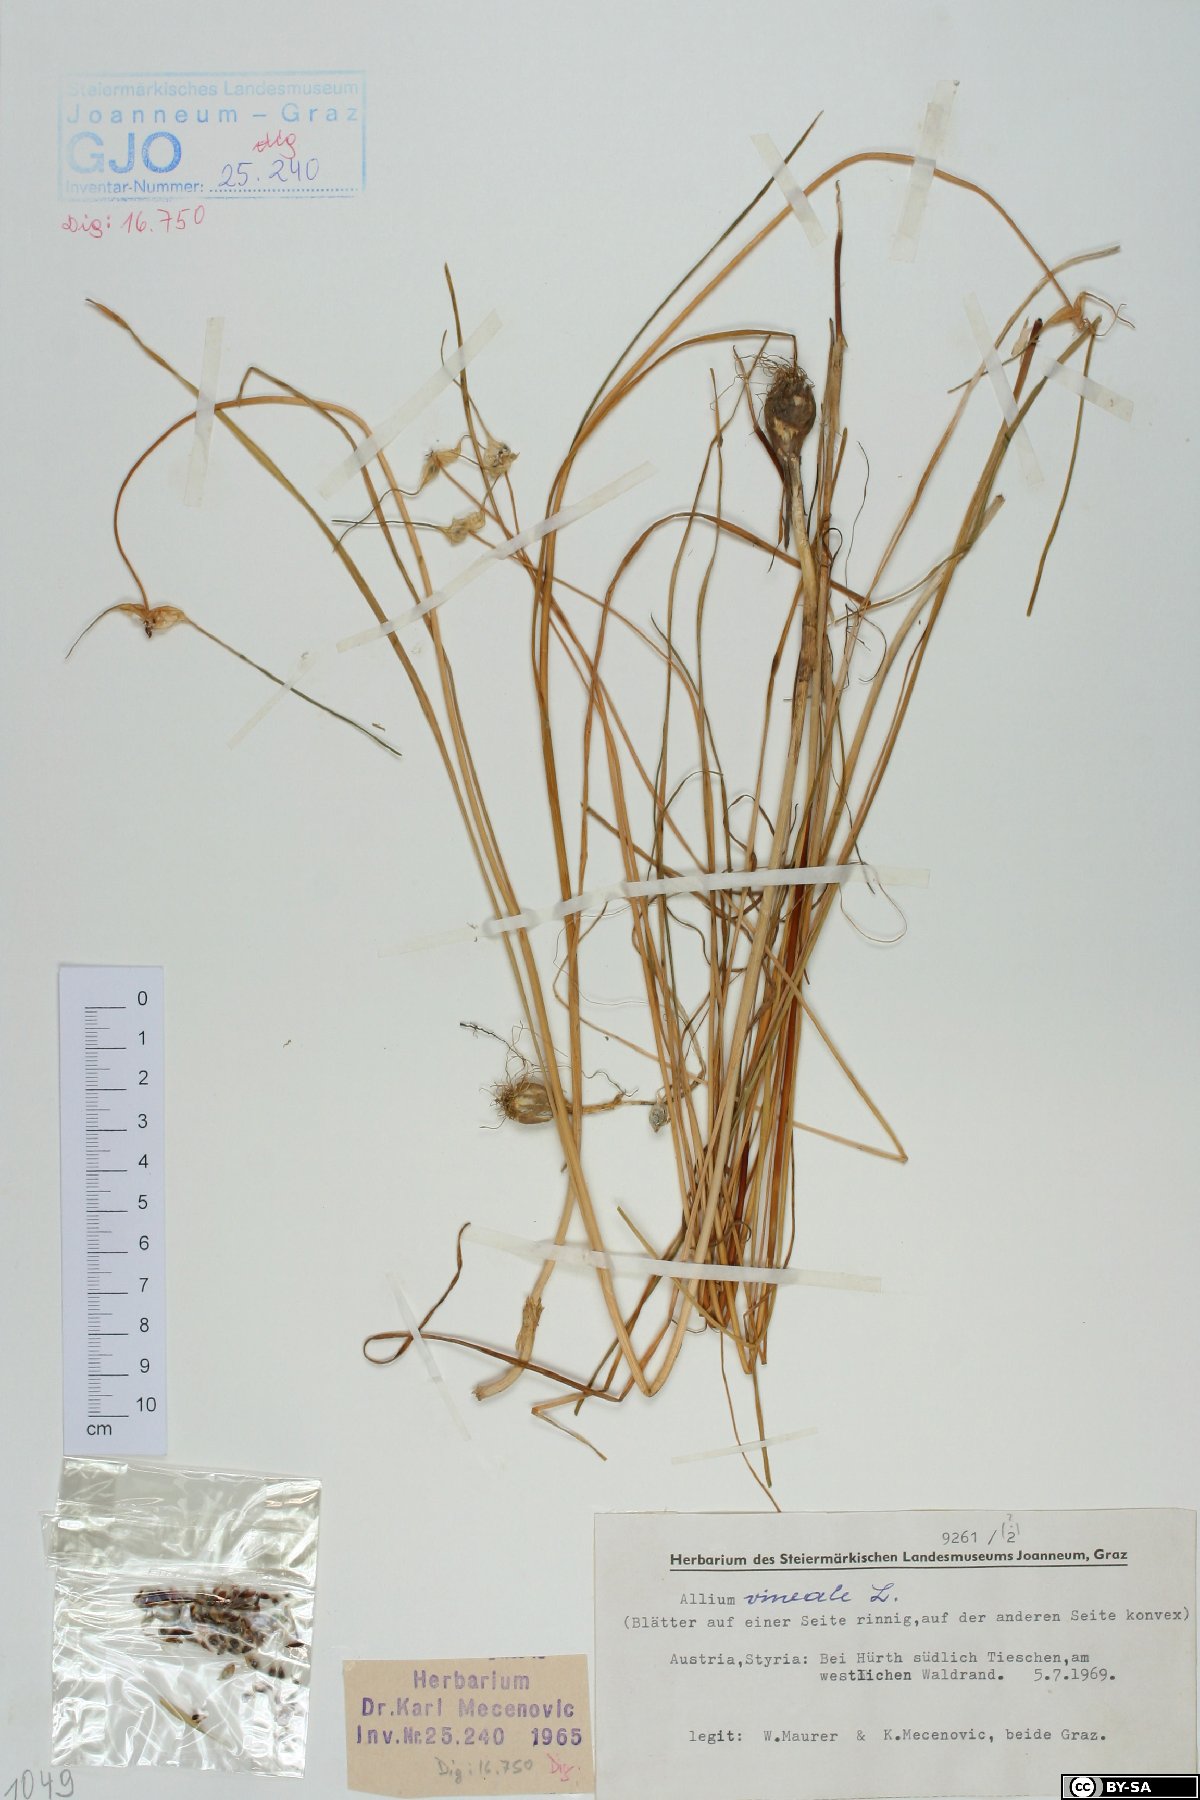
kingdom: Plantae
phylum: Tracheophyta
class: Liliopsida
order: Asparagales
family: Amaryllidaceae
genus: Allium
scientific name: Allium vineale
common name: Crow garlic
